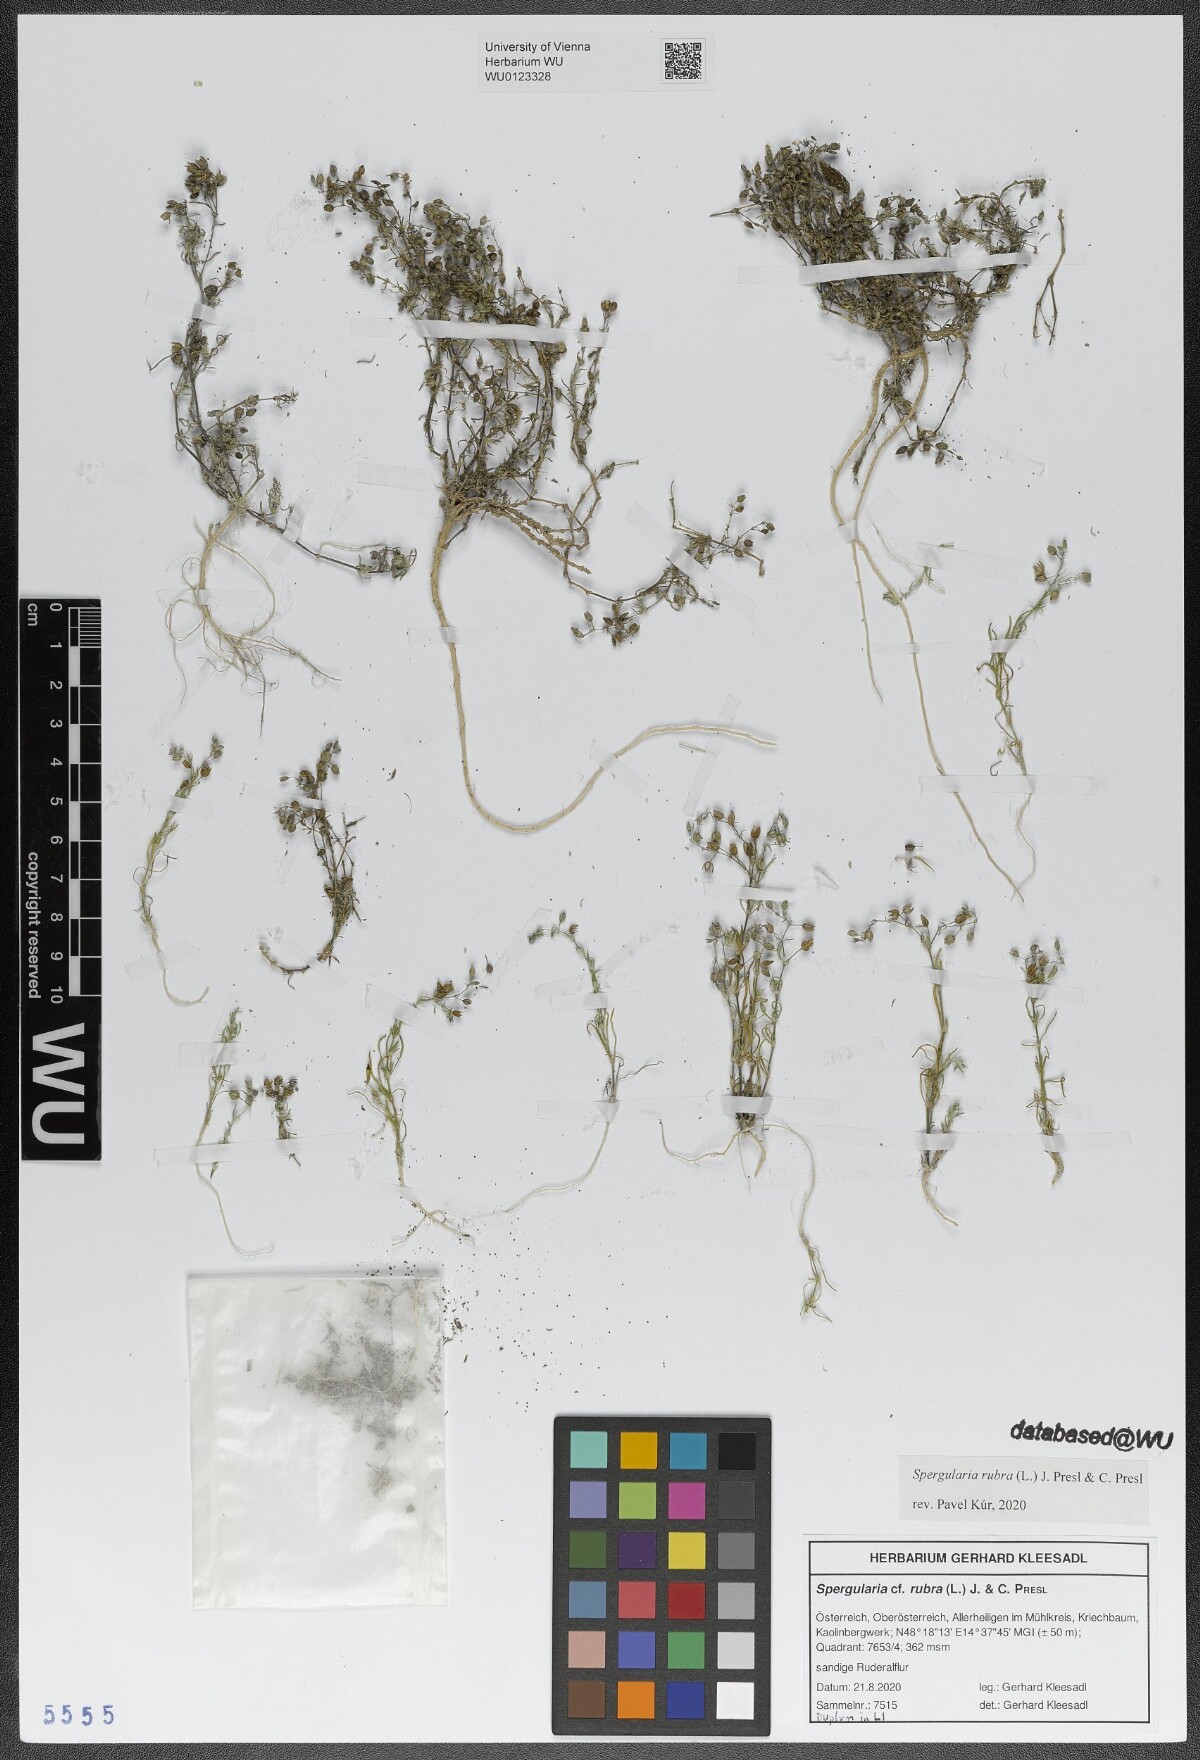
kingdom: Plantae
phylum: Tracheophyta
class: Magnoliopsida
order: Caryophyllales
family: Caryophyllaceae
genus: Spergularia
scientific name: Spergularia rubra
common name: Red sand-spurrey
